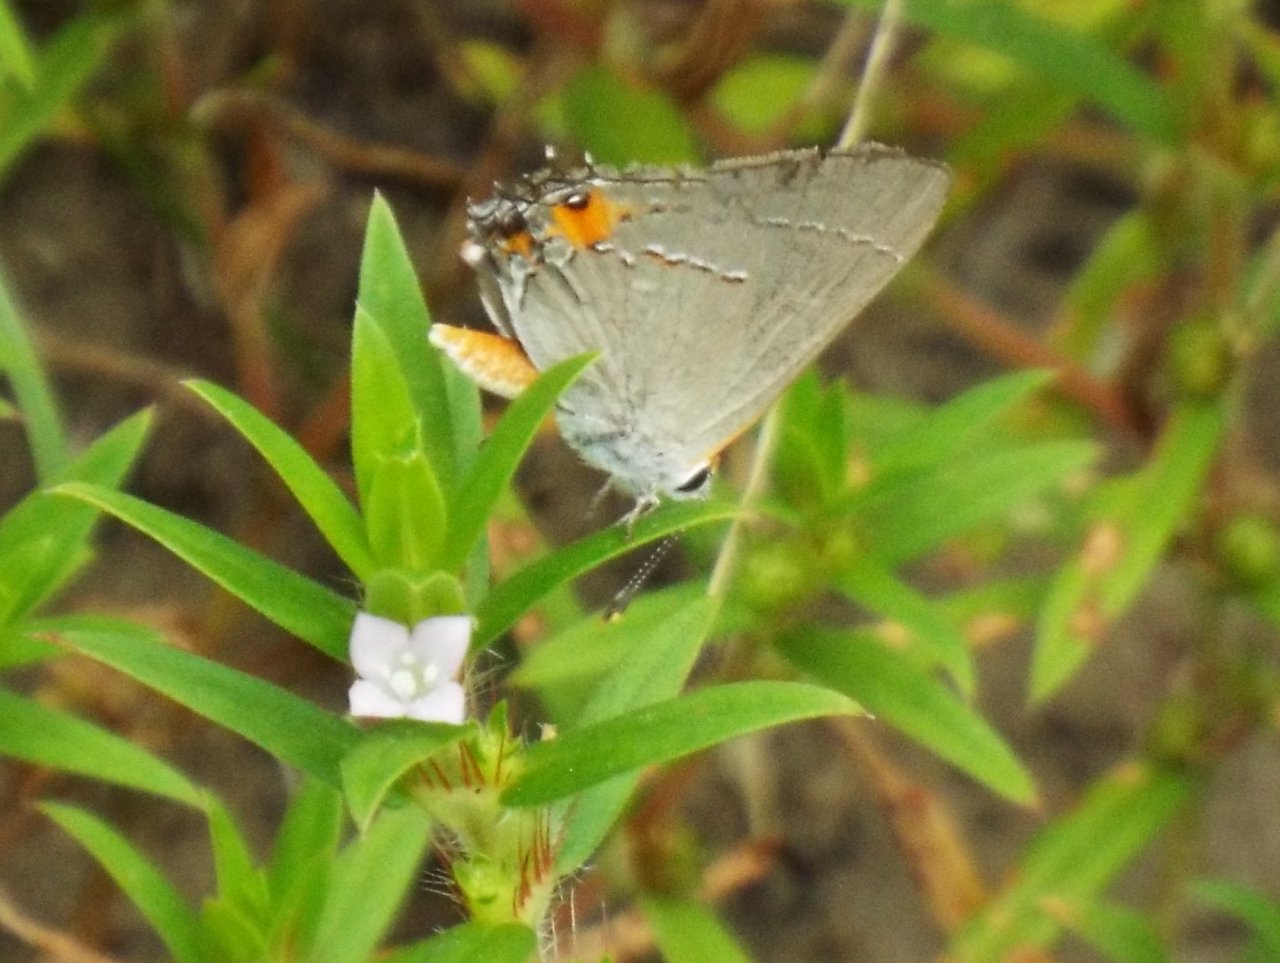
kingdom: Animalia
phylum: Arthropoda
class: Insecta
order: Lepidoptera
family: Lycaenidae
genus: Strymon
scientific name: Strymon melinus
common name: Gray Hairstreak
